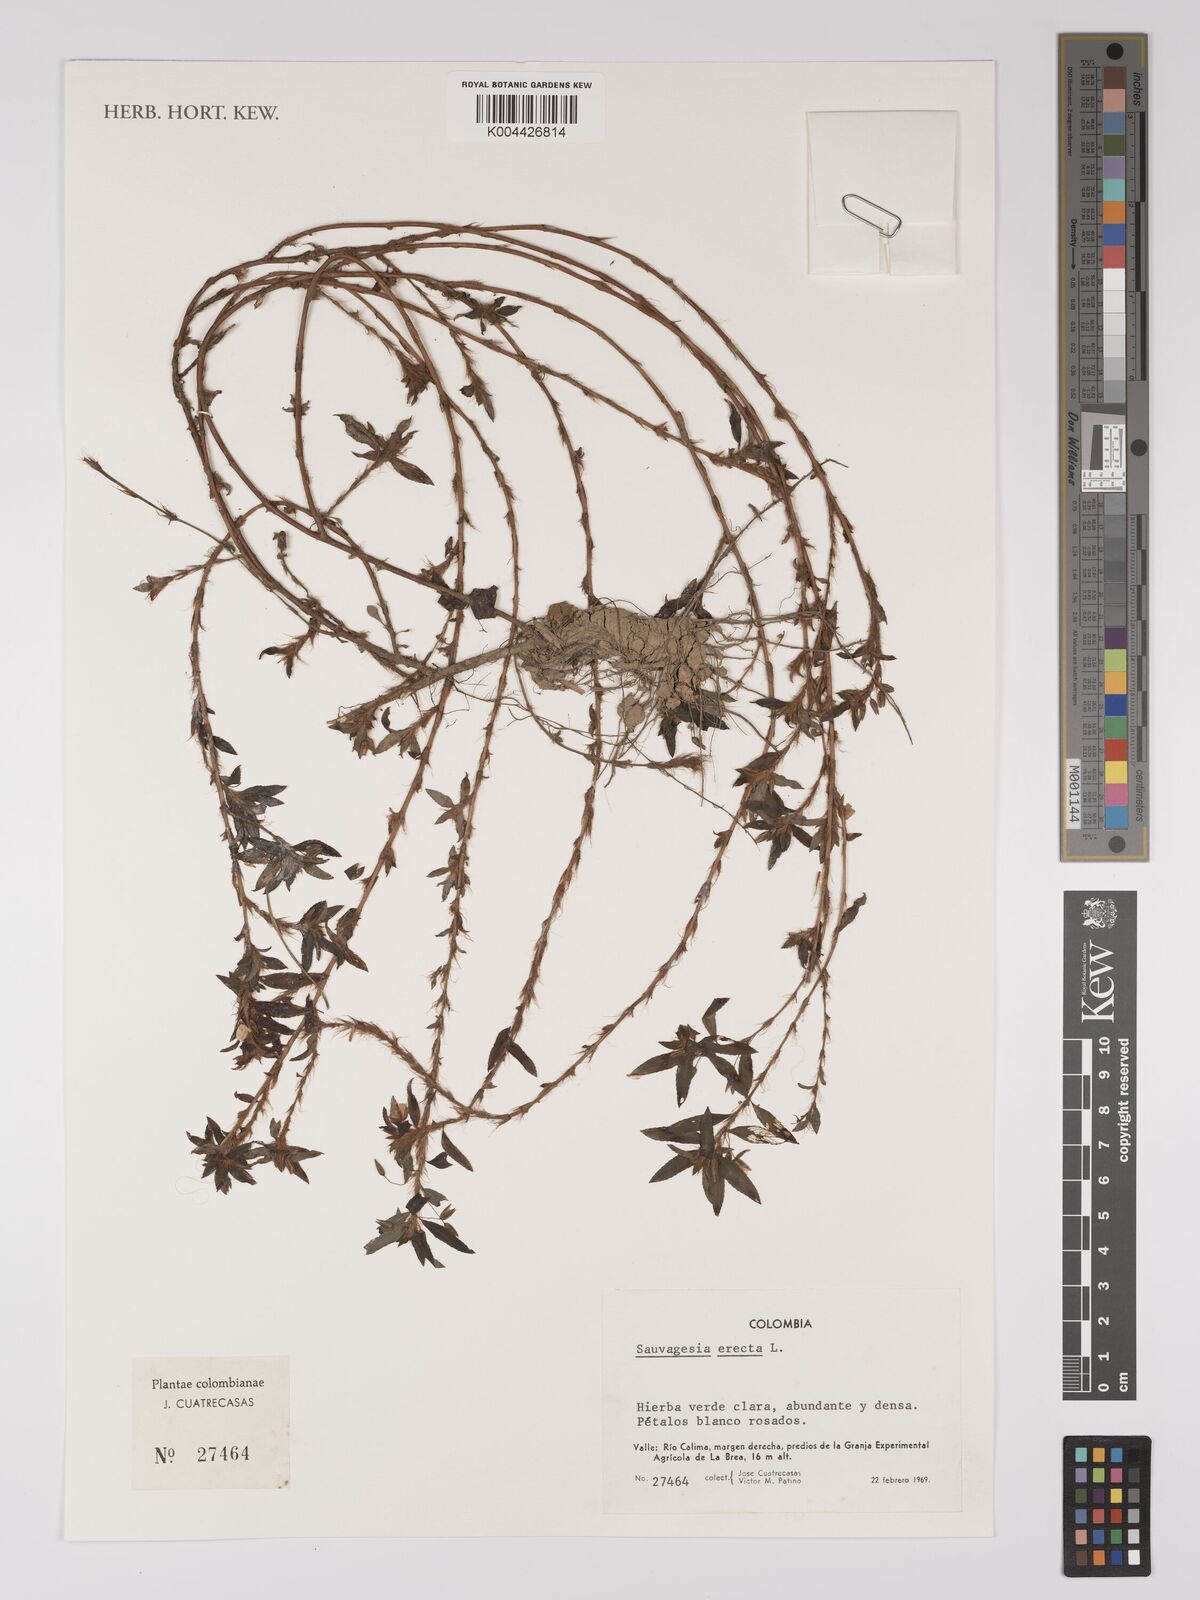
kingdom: Plantae
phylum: Tracheophyta
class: Magnoliopsida
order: Malpighiales
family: Ochnaceae
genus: Sauvagesia
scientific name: Sauvagesia erecta
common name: Creole tea
